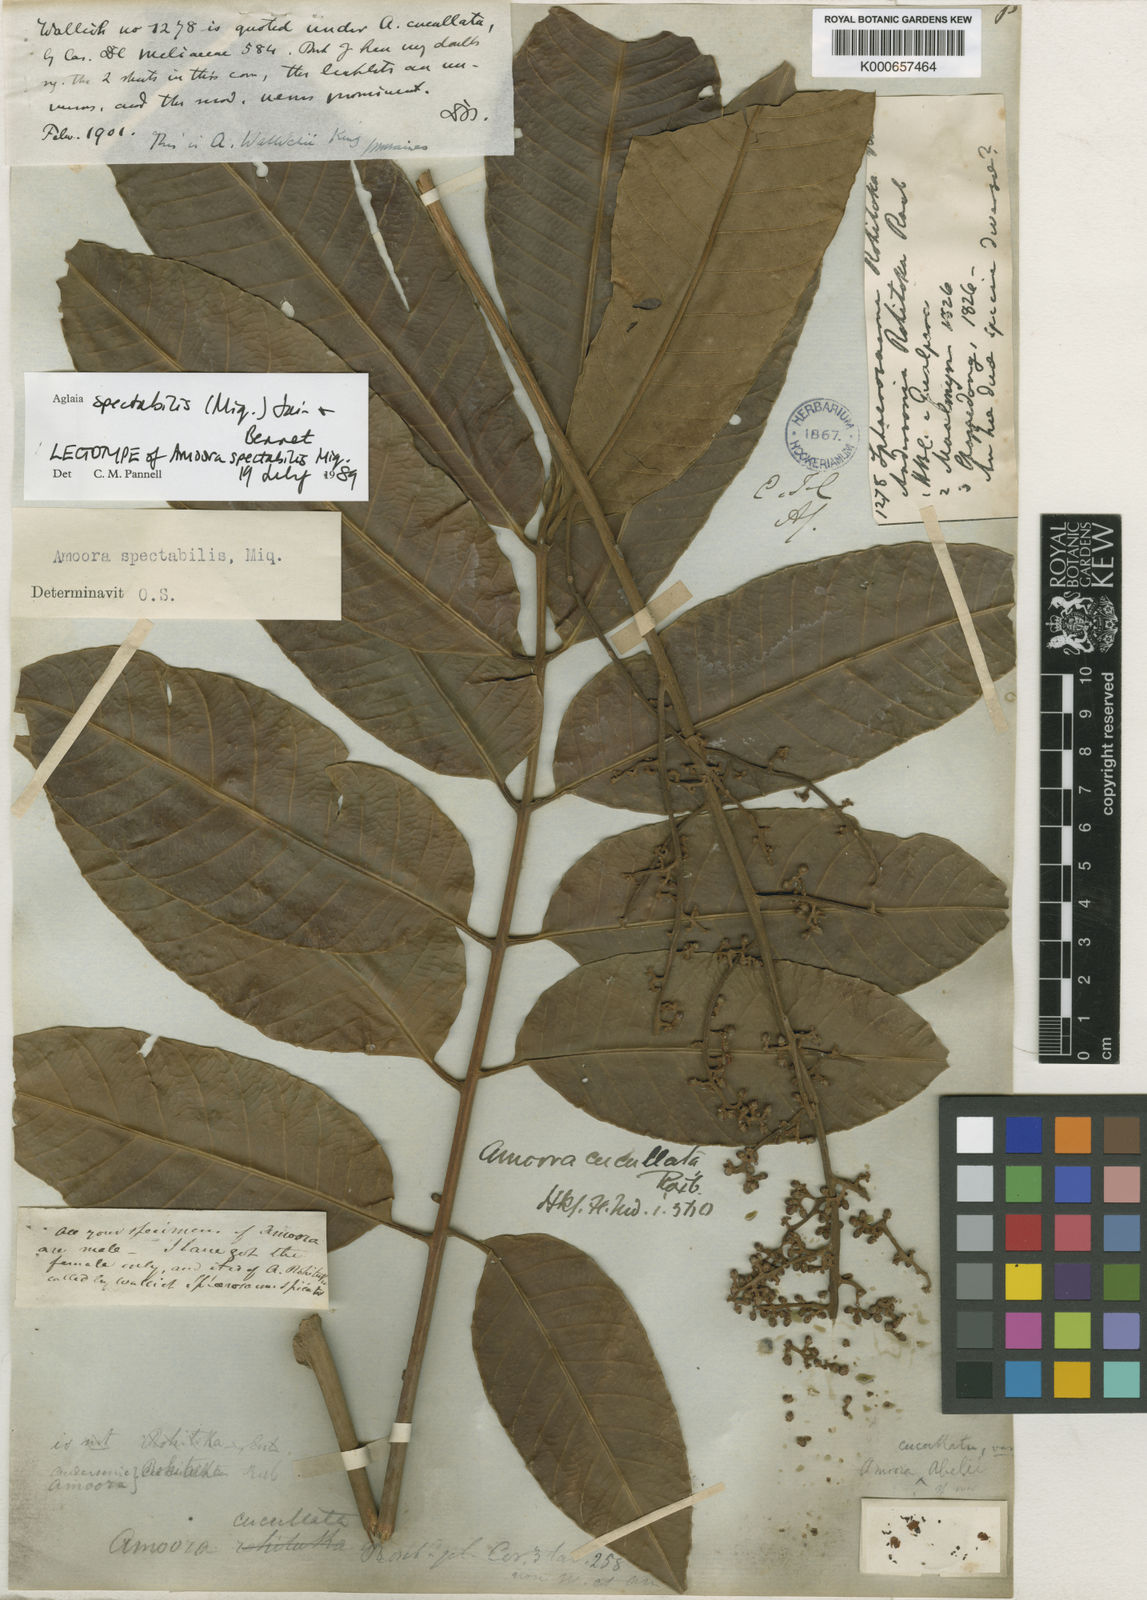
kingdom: Plantae
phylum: Tracheophyta
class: Magnoliopsida
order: Sapindales
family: Meliaceae
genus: Aglaia
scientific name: Aglaia spectabilis
